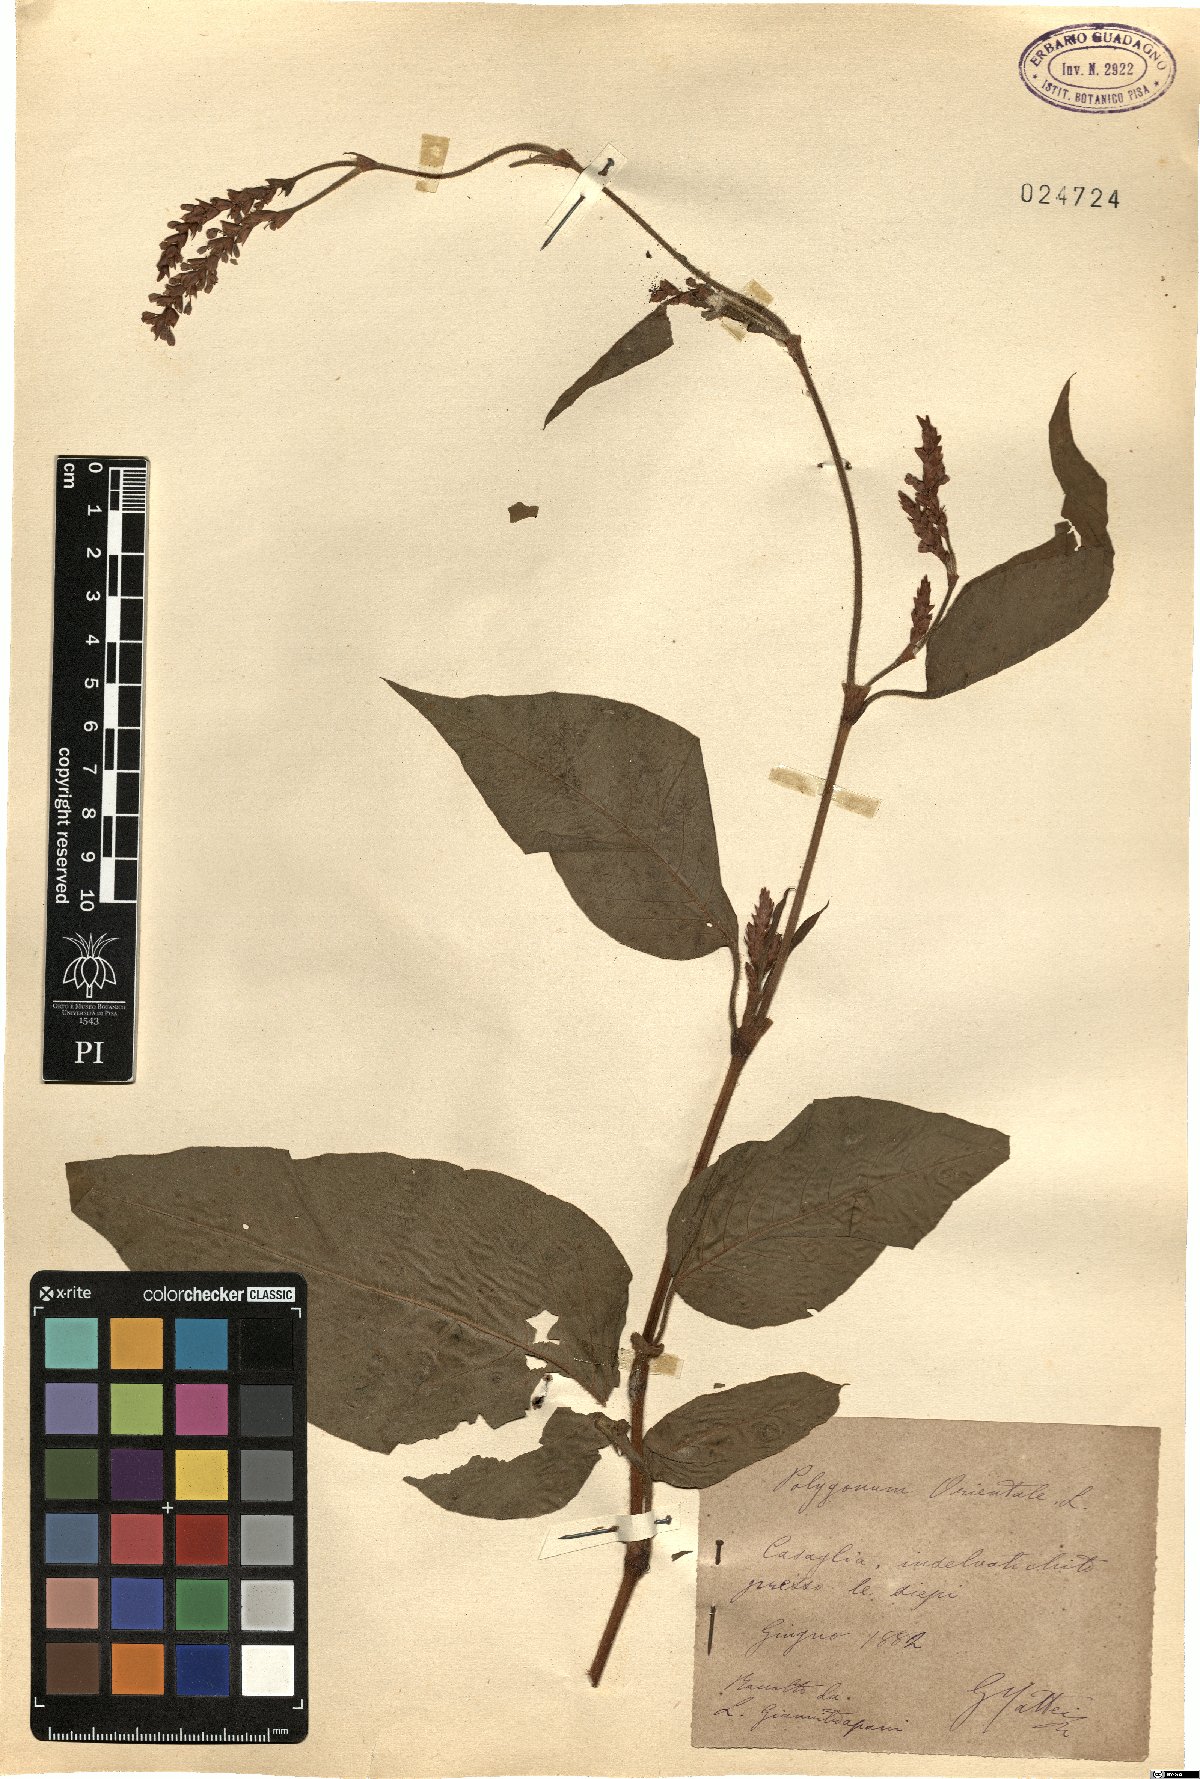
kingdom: Plantae
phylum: Tracheophyta
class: Magnoliopsida
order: Caryophyllales
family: Polygonaceae
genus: Persicaria
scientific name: Persicaria orientalis
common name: Kiss-me-over-the-garden-gate
